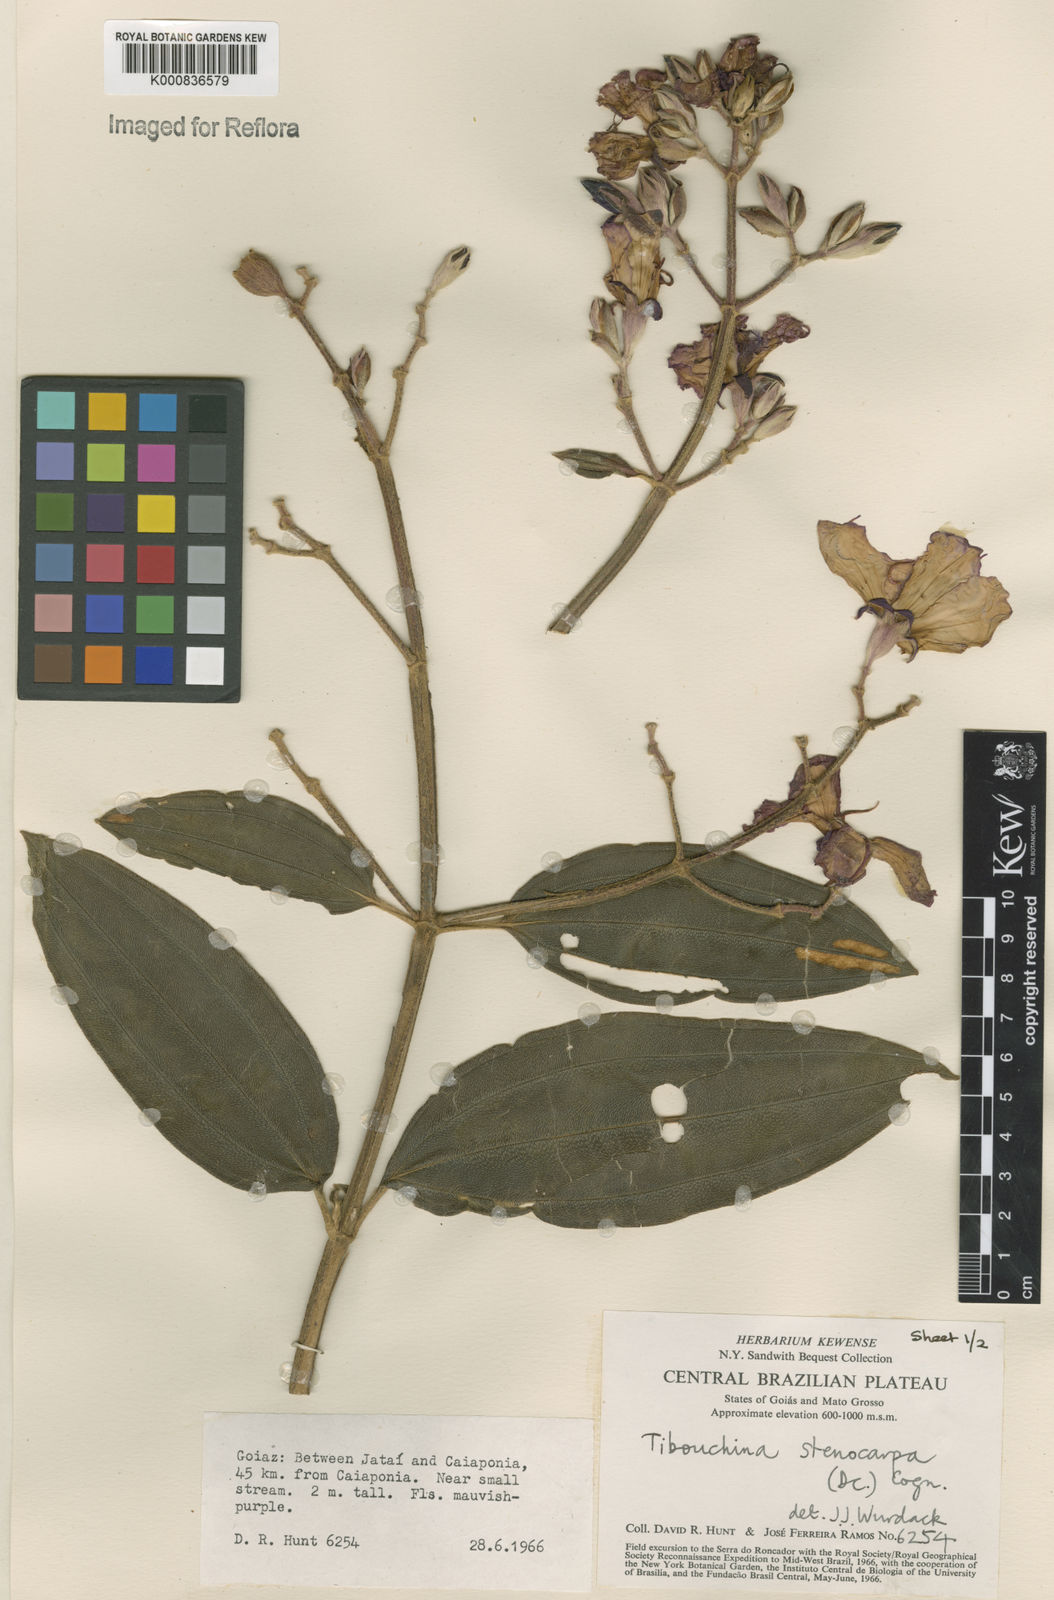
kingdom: Plantae
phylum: Tracheophyta
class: Magnoliopsida
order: Myrtales
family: Melastomataceae
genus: Pleroma
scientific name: Pleroma stenocarpum
